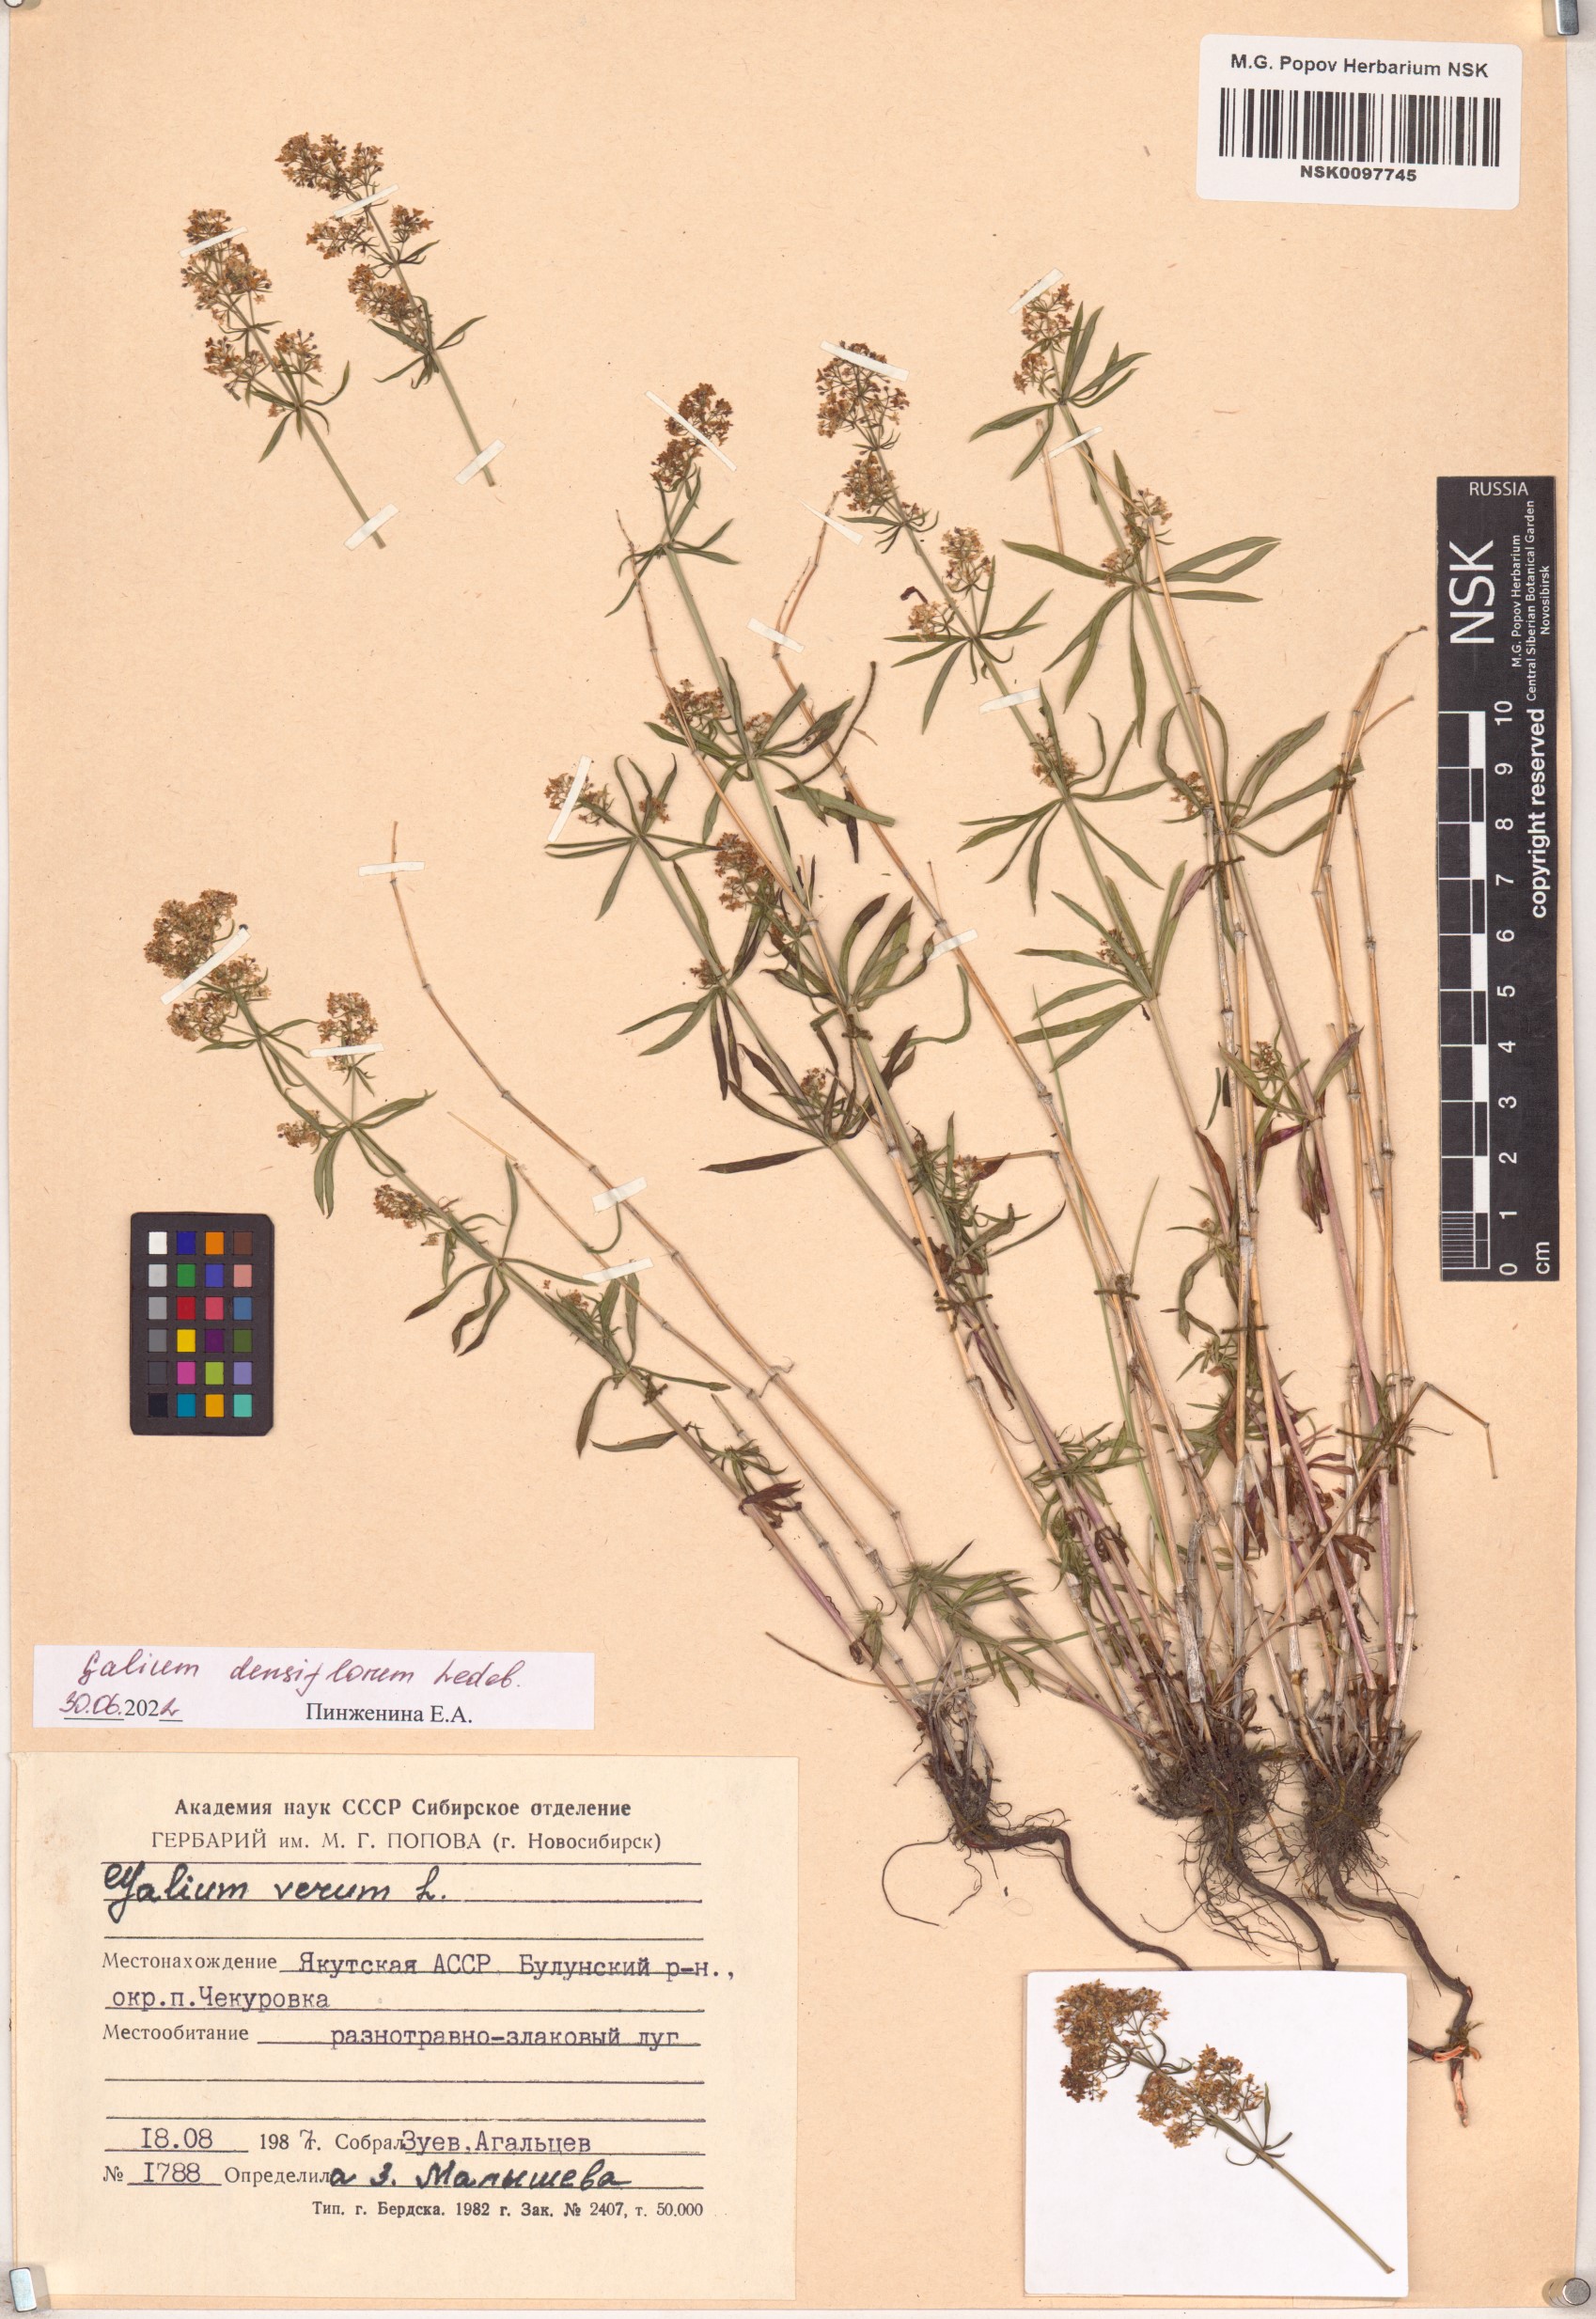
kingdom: Plantae
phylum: Tracheophyta
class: Magnoliopsida
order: Gentianales
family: Rubiaceae
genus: Galium
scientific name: Galium densiflorum
